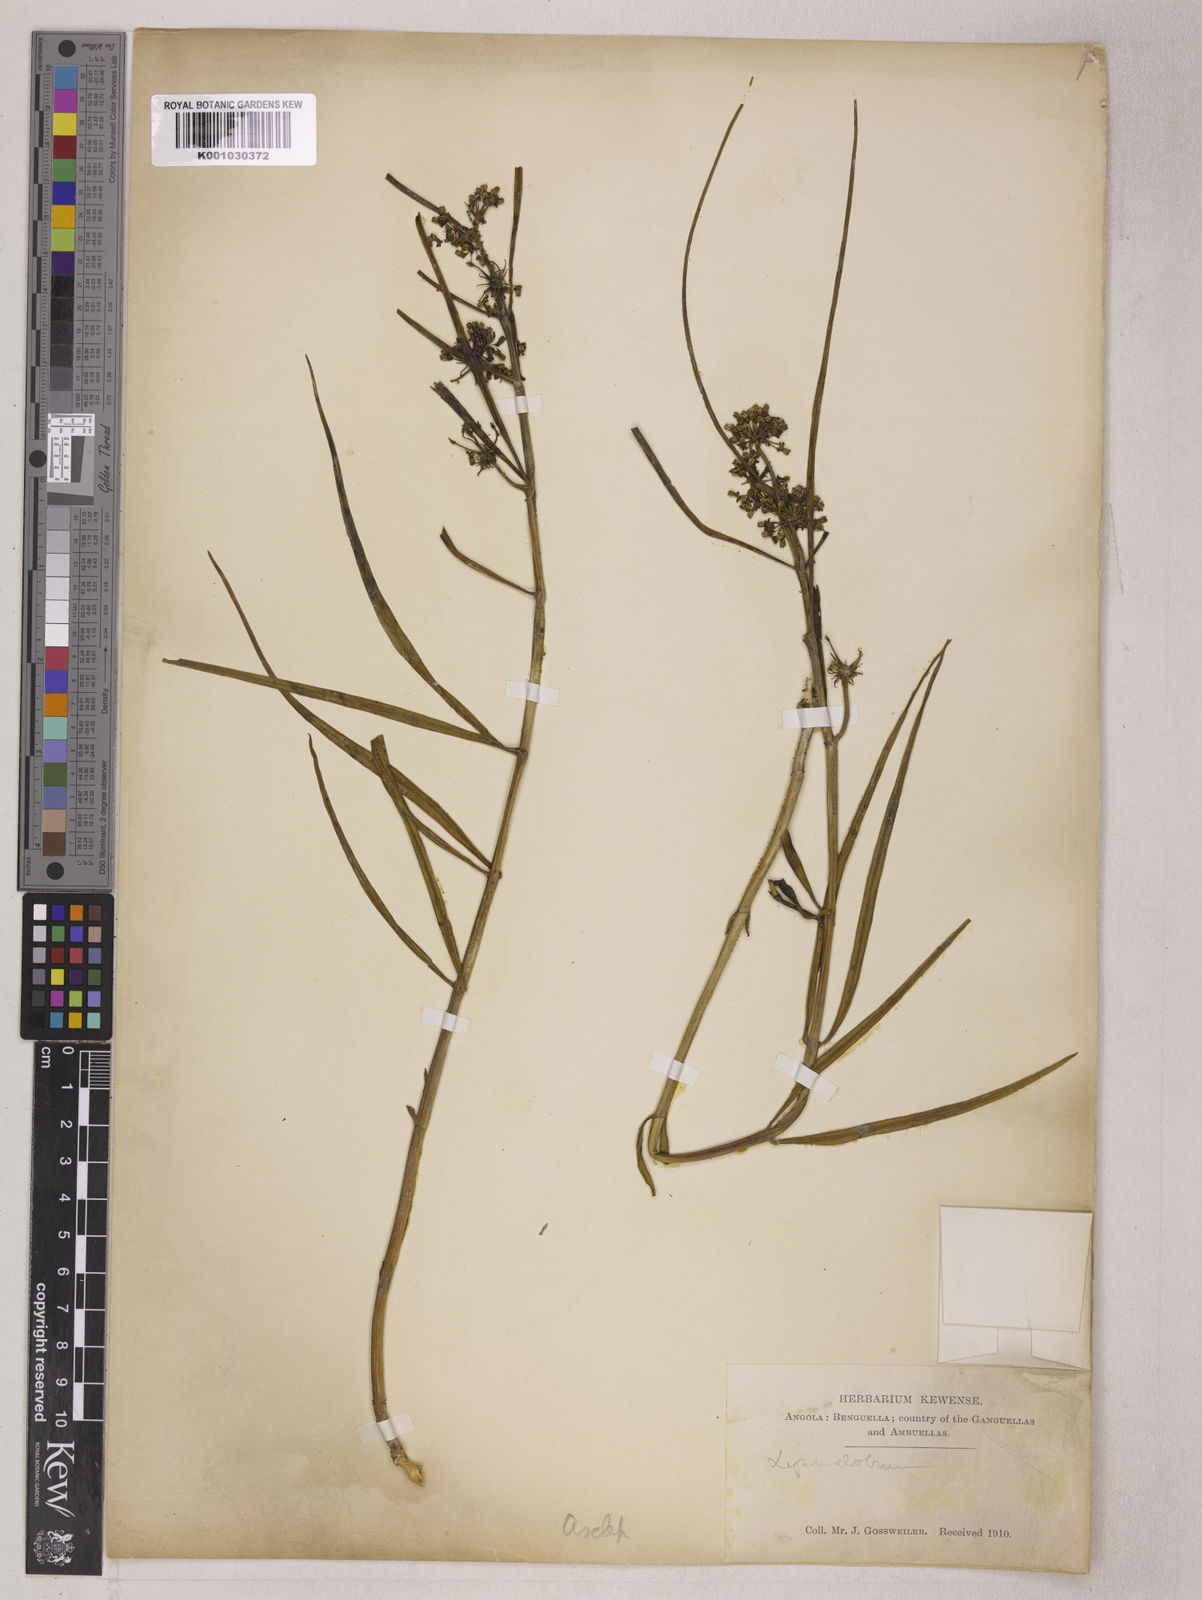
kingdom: Plantae
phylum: Tracheophyta
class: Magnoliopsida
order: Gentianales
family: Apocynaceae
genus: Xysmalobium
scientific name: Xysmalobium holubii
